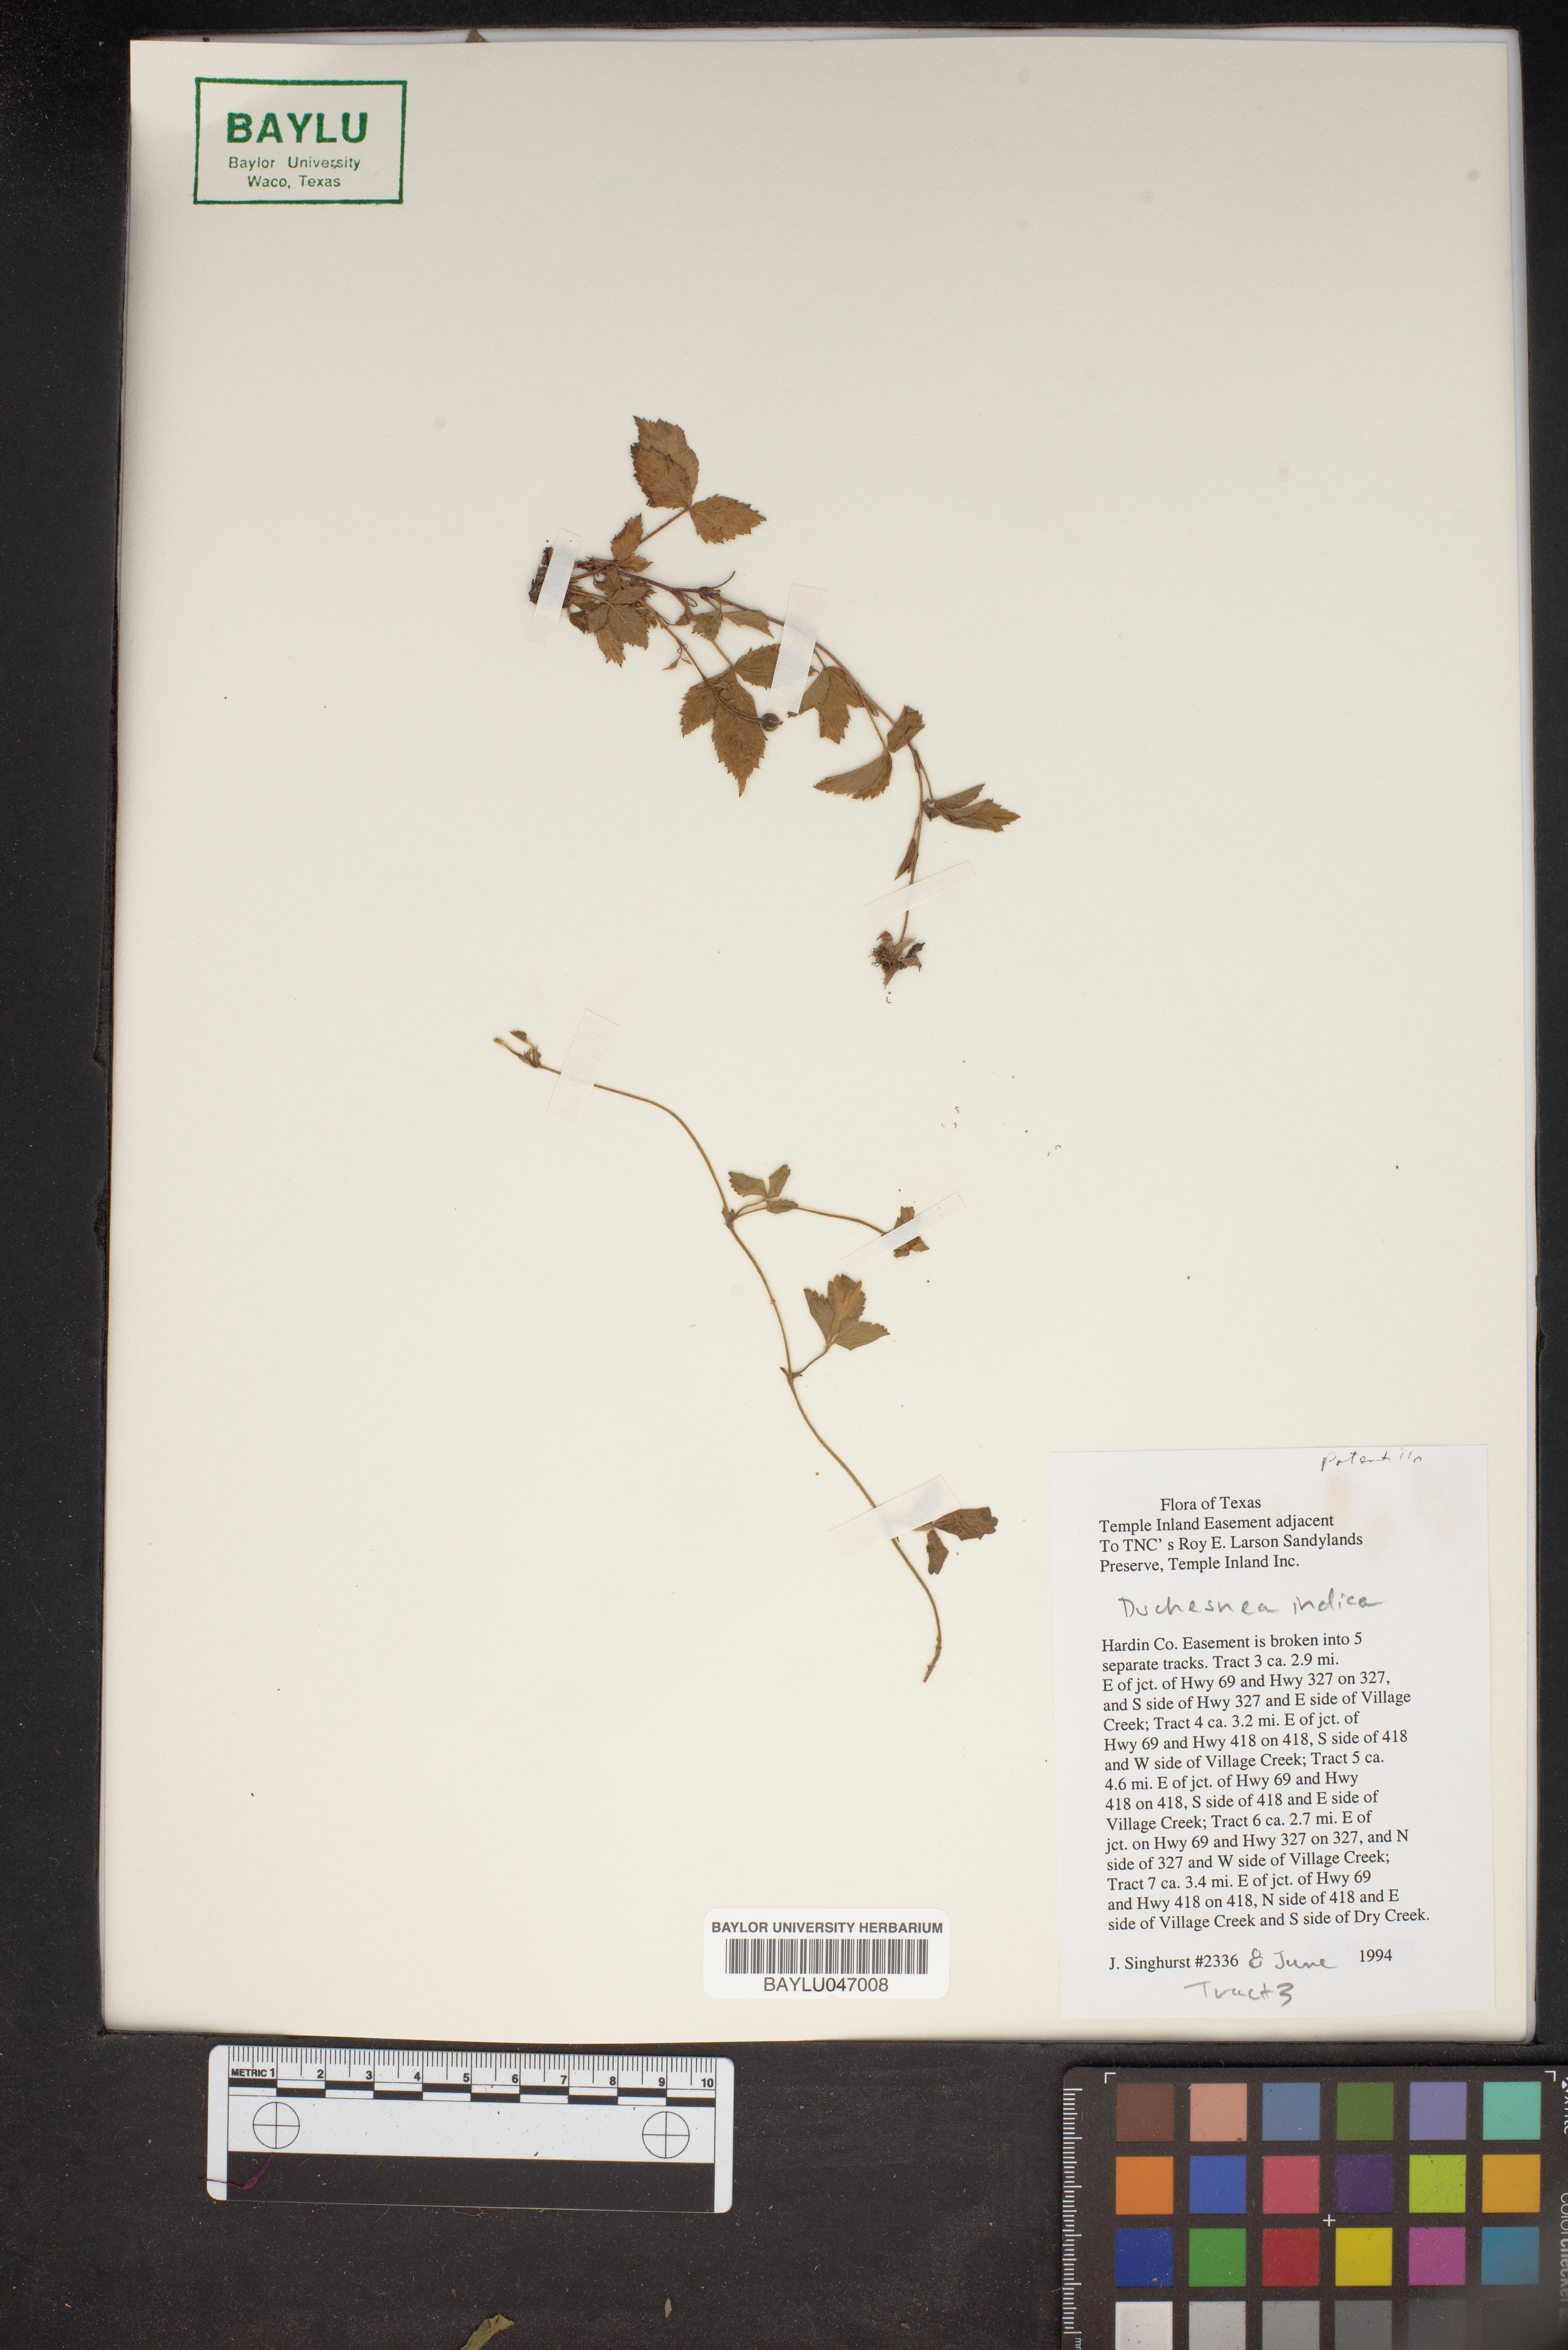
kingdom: Plantae
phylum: Tracheophyta
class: Magnoliopsida
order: Rosales
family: Rosaceae
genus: Potentilla
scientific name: Potentilla indica
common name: Yellow-flowered strawberry
